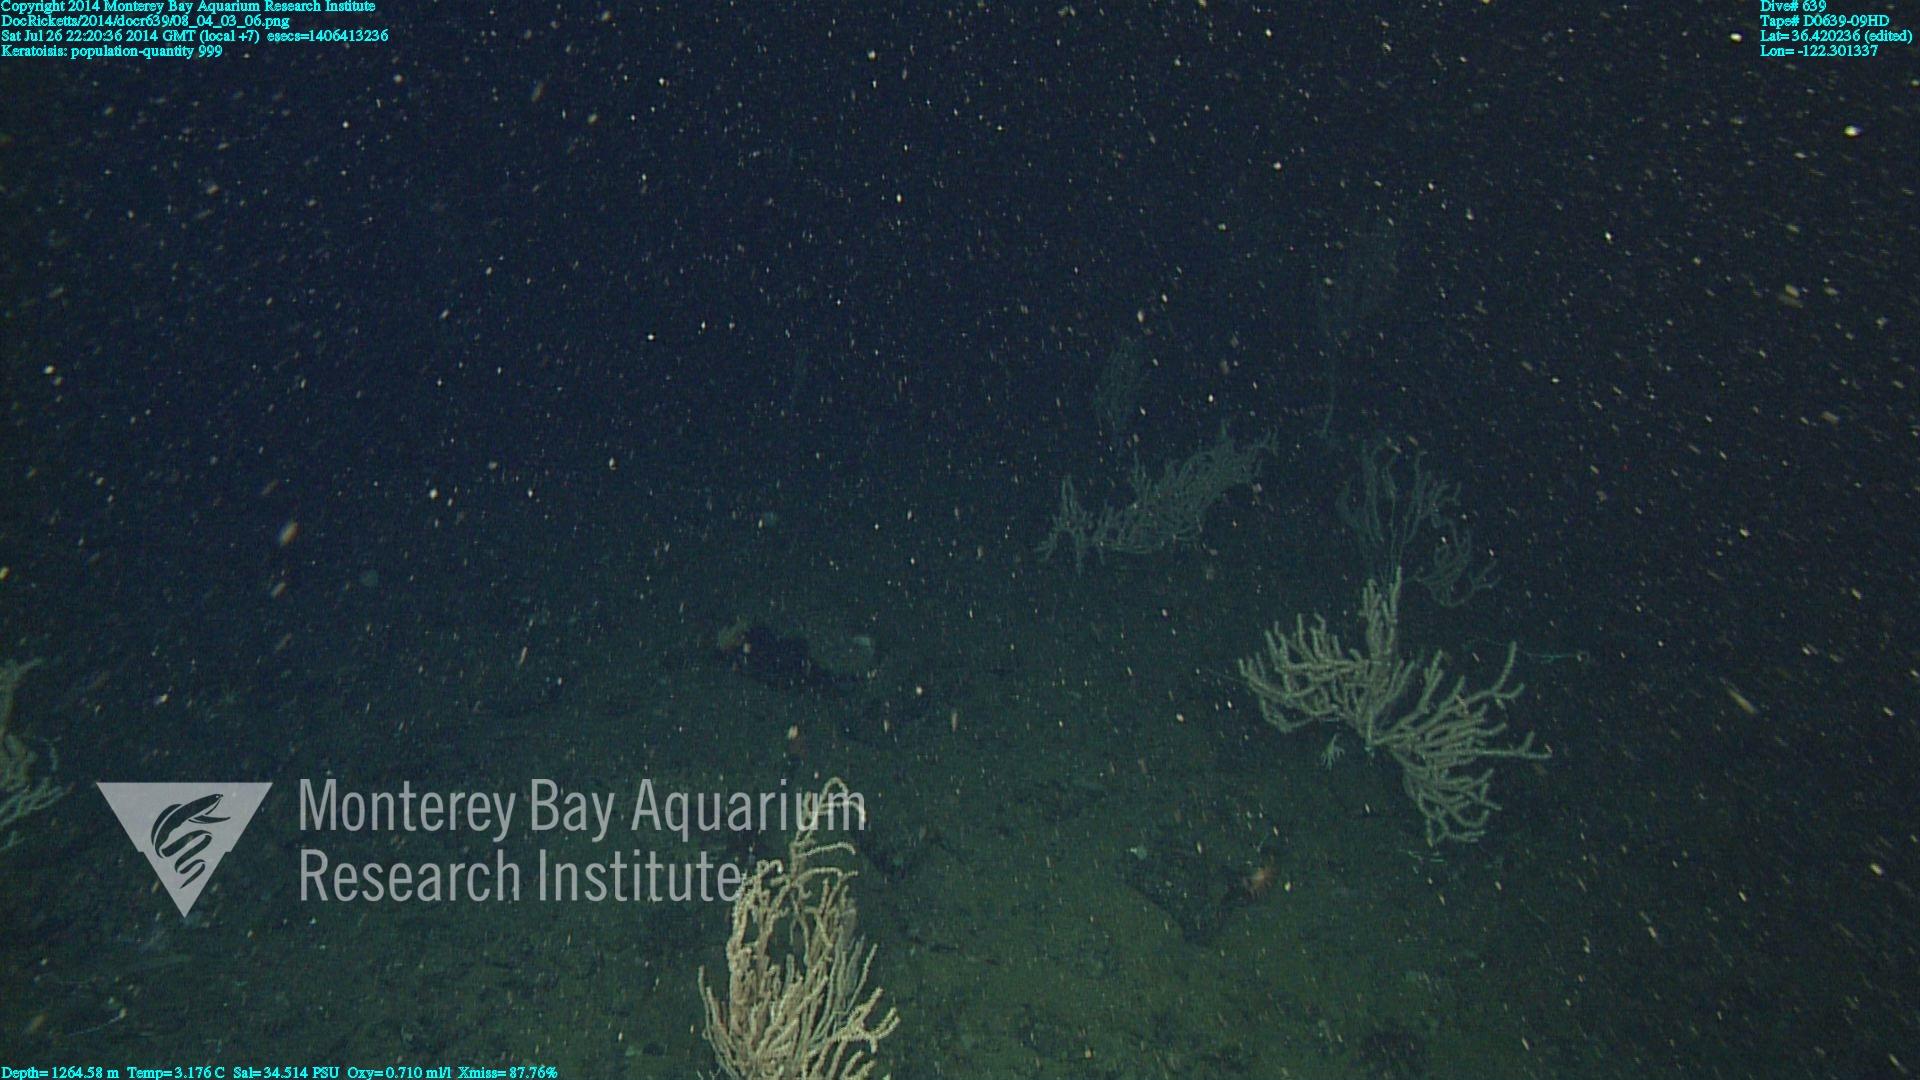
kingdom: Animalia
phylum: Cnidaria
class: Anthozoa
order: Scleralcyonacea
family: Keratoisididae
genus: Keratoisis
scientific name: Keratoisis
